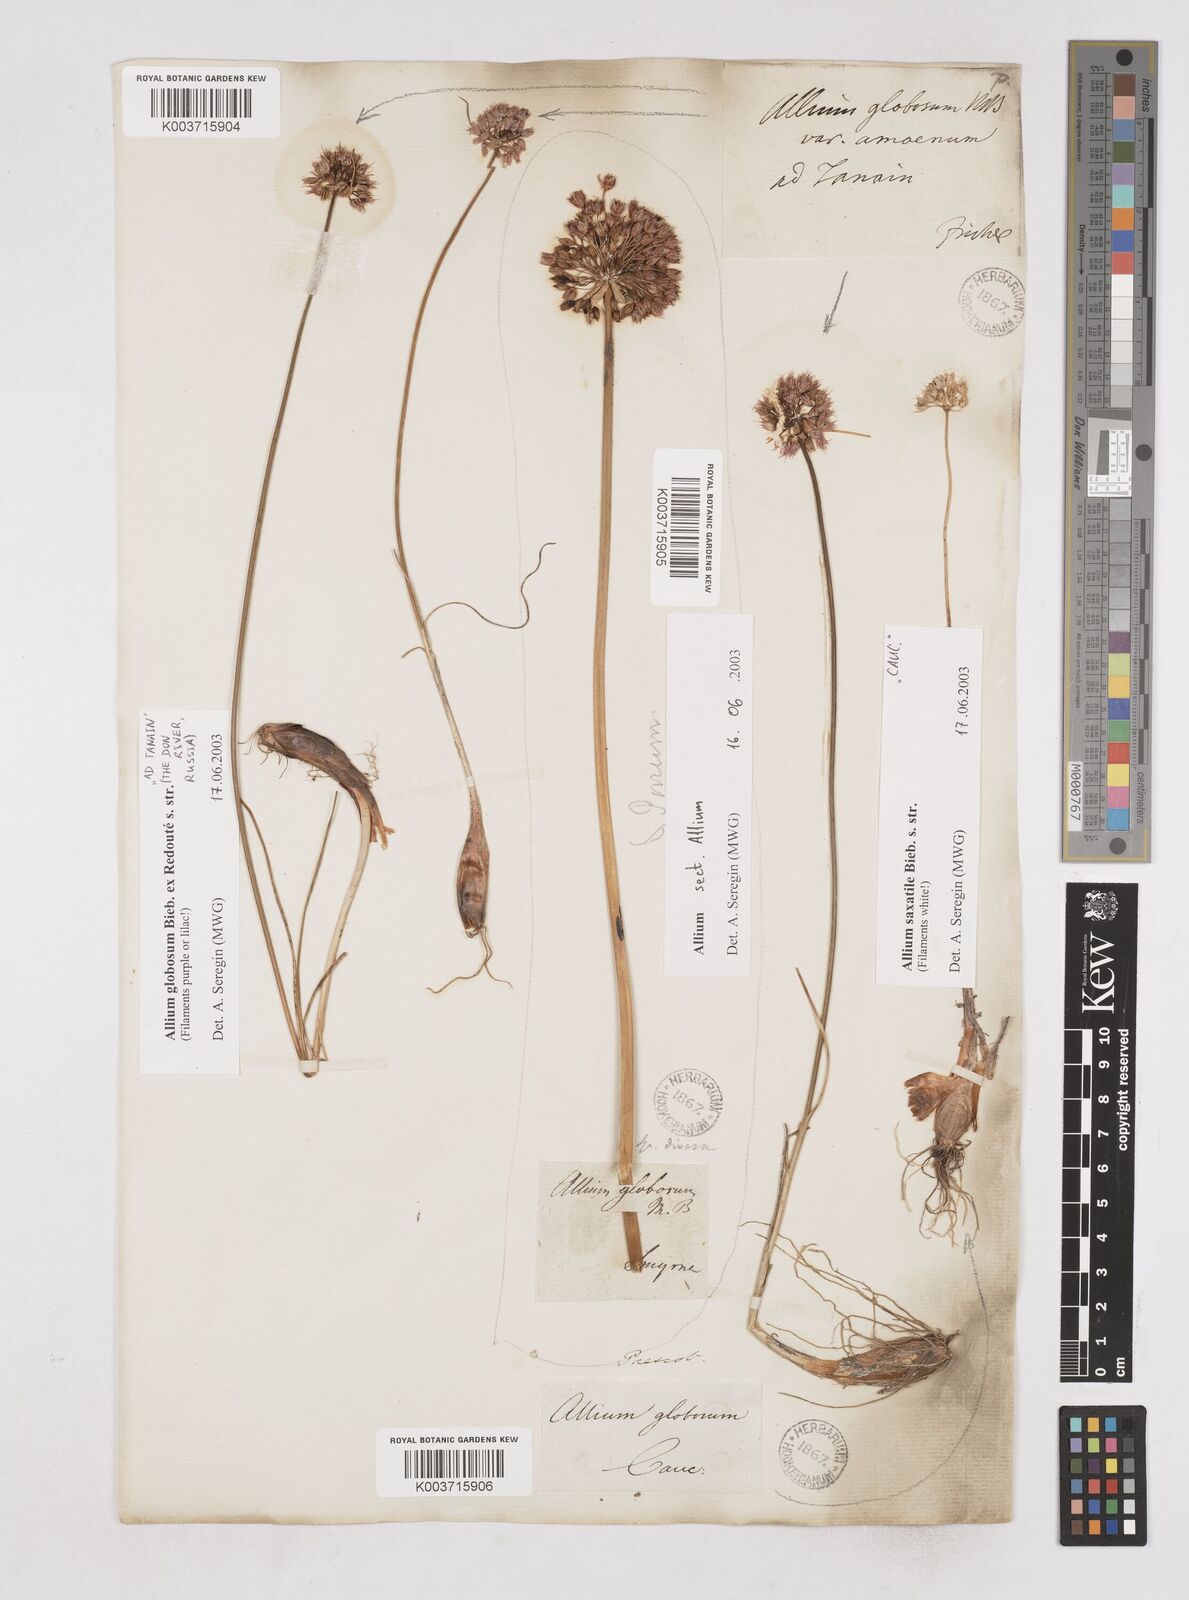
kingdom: Plantae
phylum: Tracheophyta
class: Liliopsida
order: Asparagales
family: Amaryllidaceae
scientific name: Amaryllidaceae
